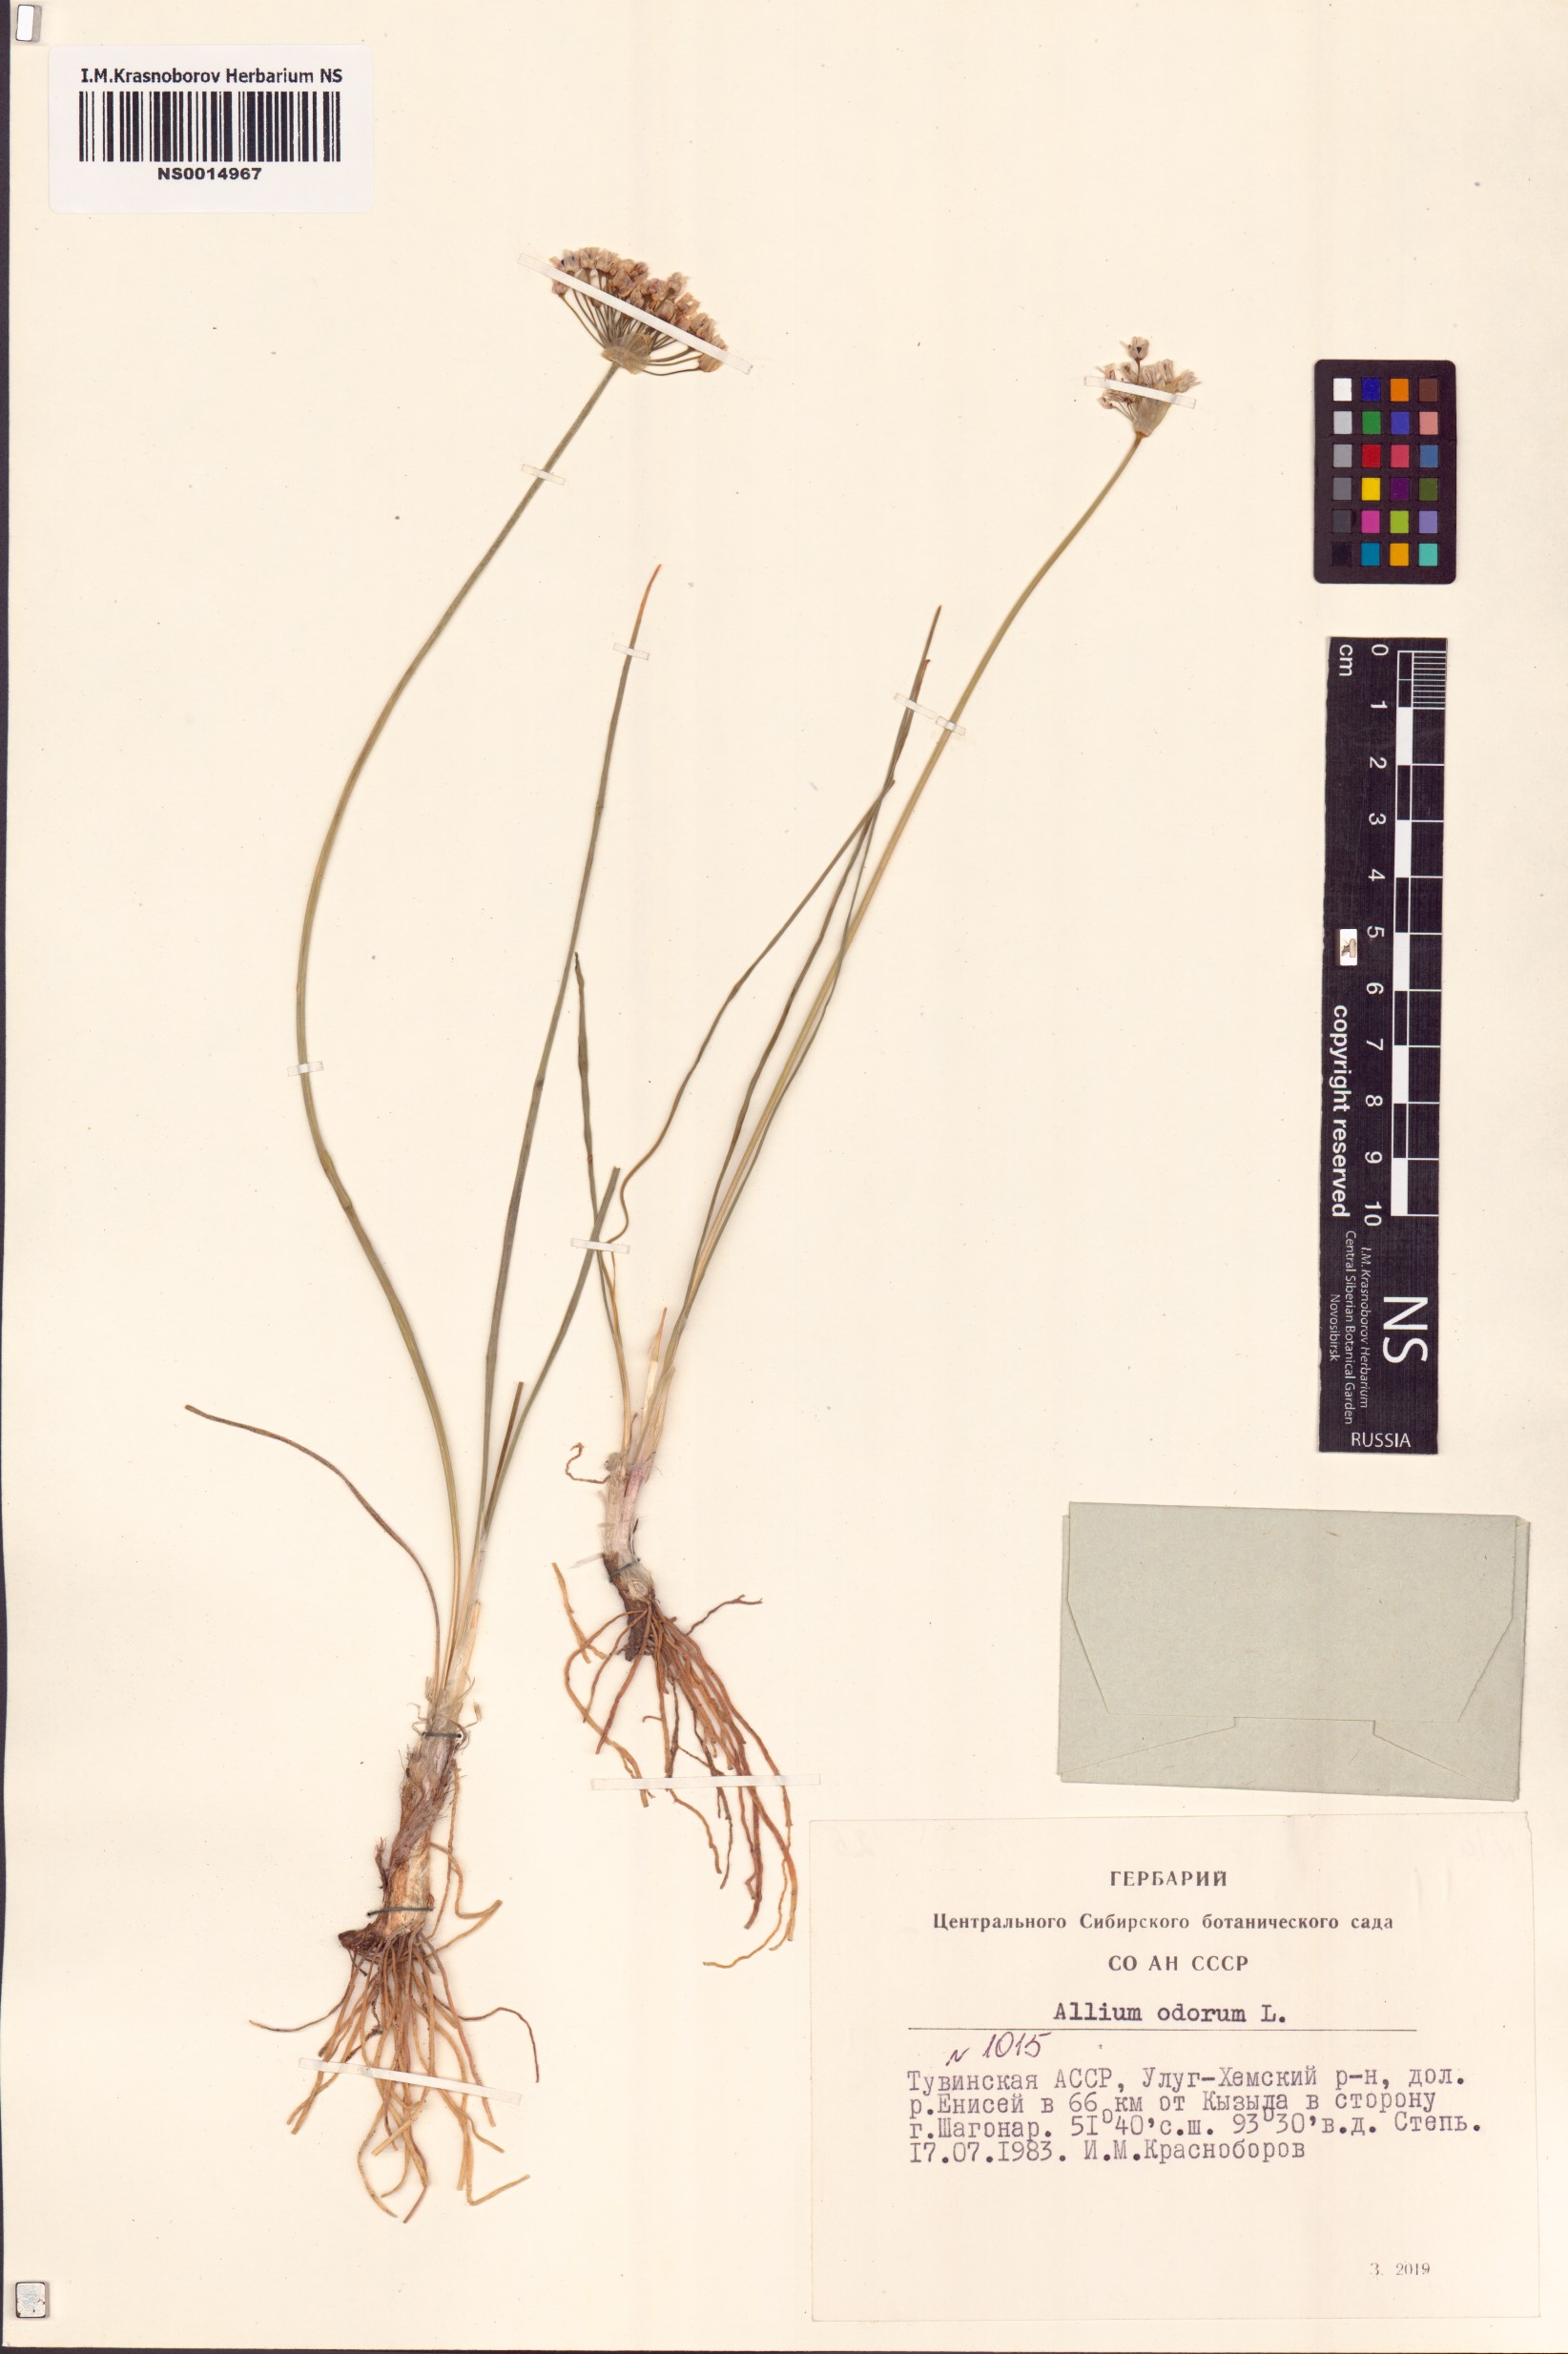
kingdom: Plantae
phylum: Tracheophyta
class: Liliopsida
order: Asparagales
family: Amaryllidaceae
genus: Allium
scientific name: Allium ramosum
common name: Fragrant garlic
